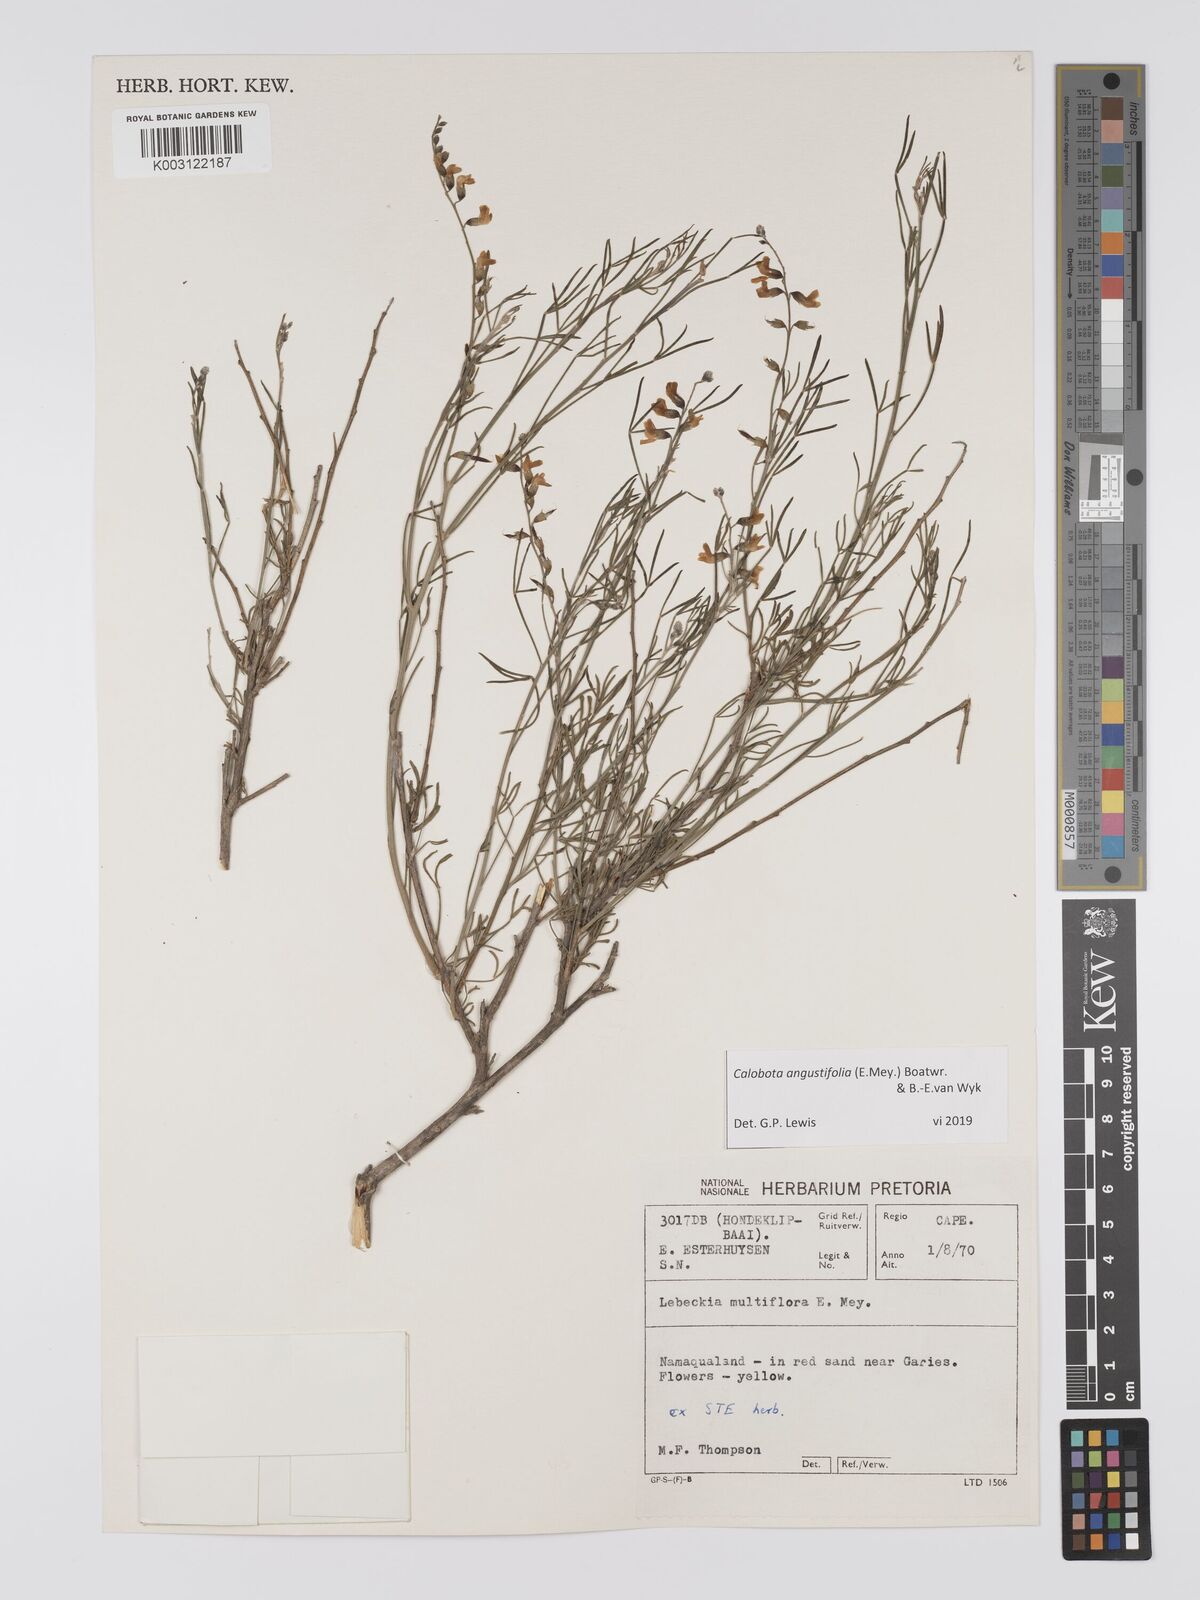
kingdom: Plantae
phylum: Tracheophyta
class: Magnoliopsida
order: Fabales
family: Fabaceae
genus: Calobota
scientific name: Calobota angustifolia
